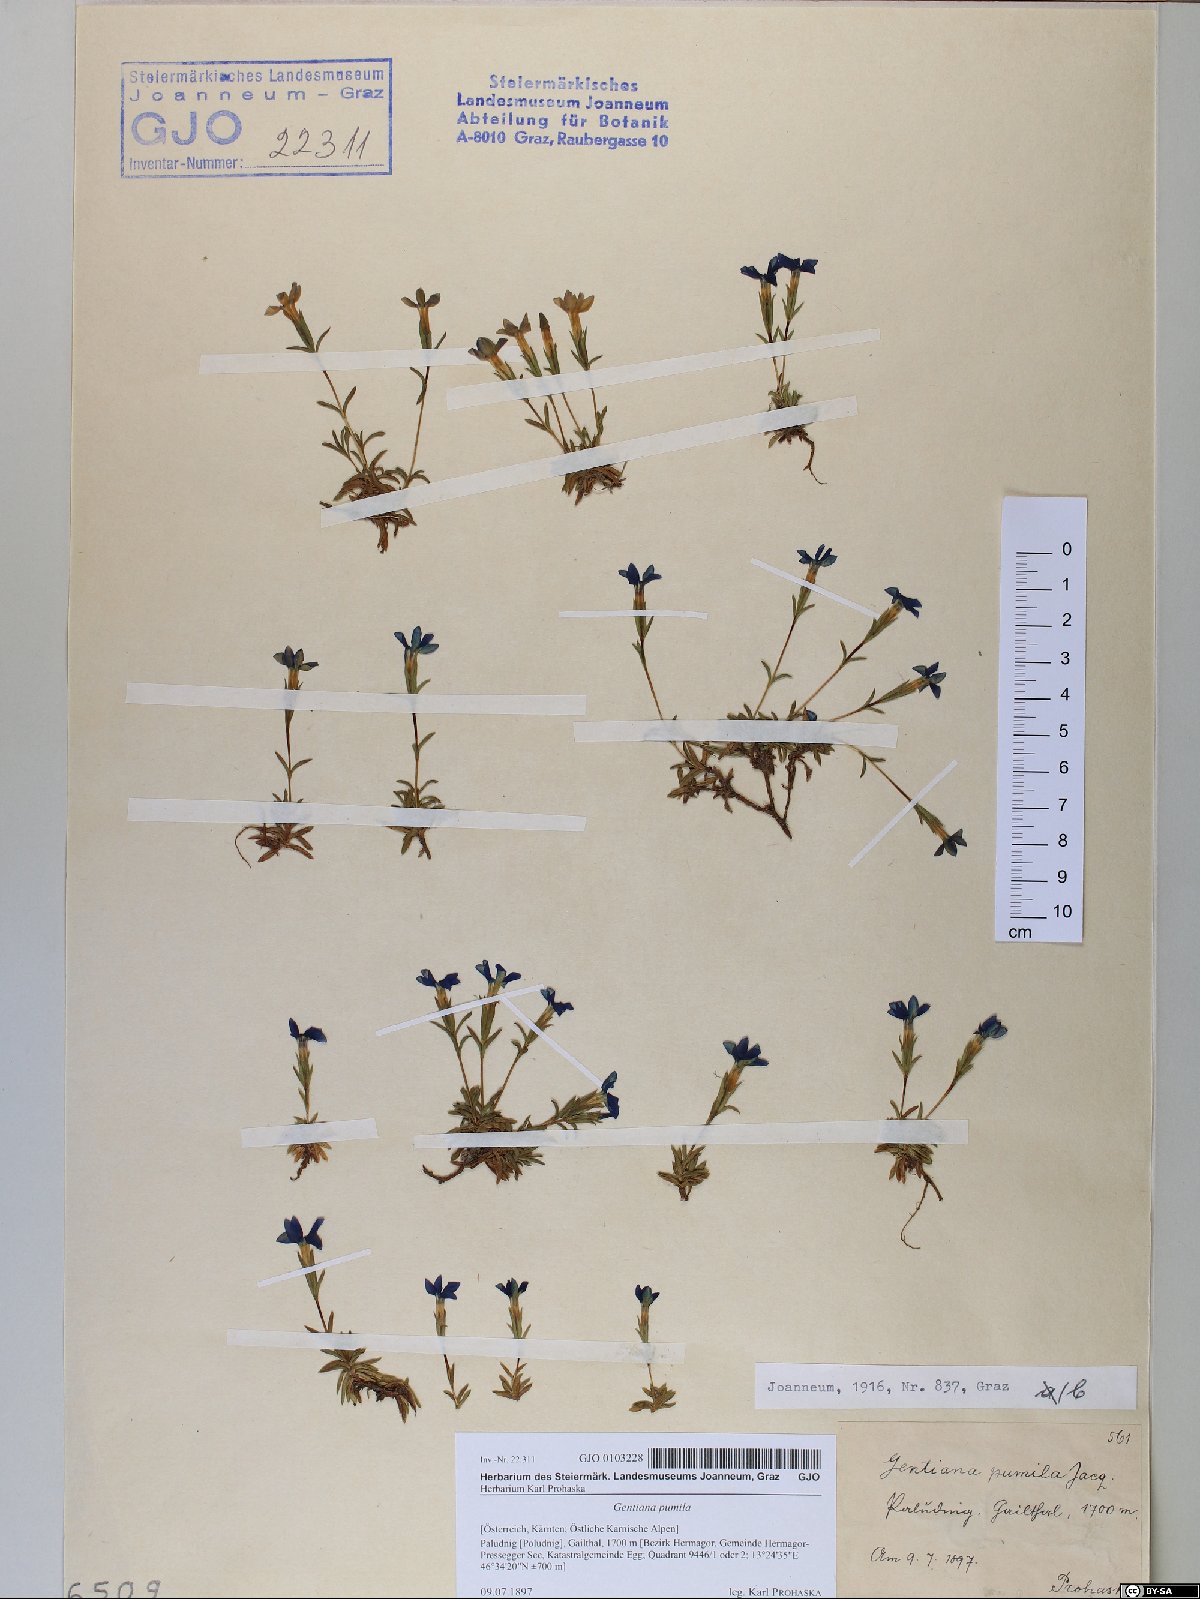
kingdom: Plantae
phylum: Tracheophyta
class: Magnoliopsida
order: Gentianales
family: Gentianaceae
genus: Gentiana
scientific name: Gentiana pumila
